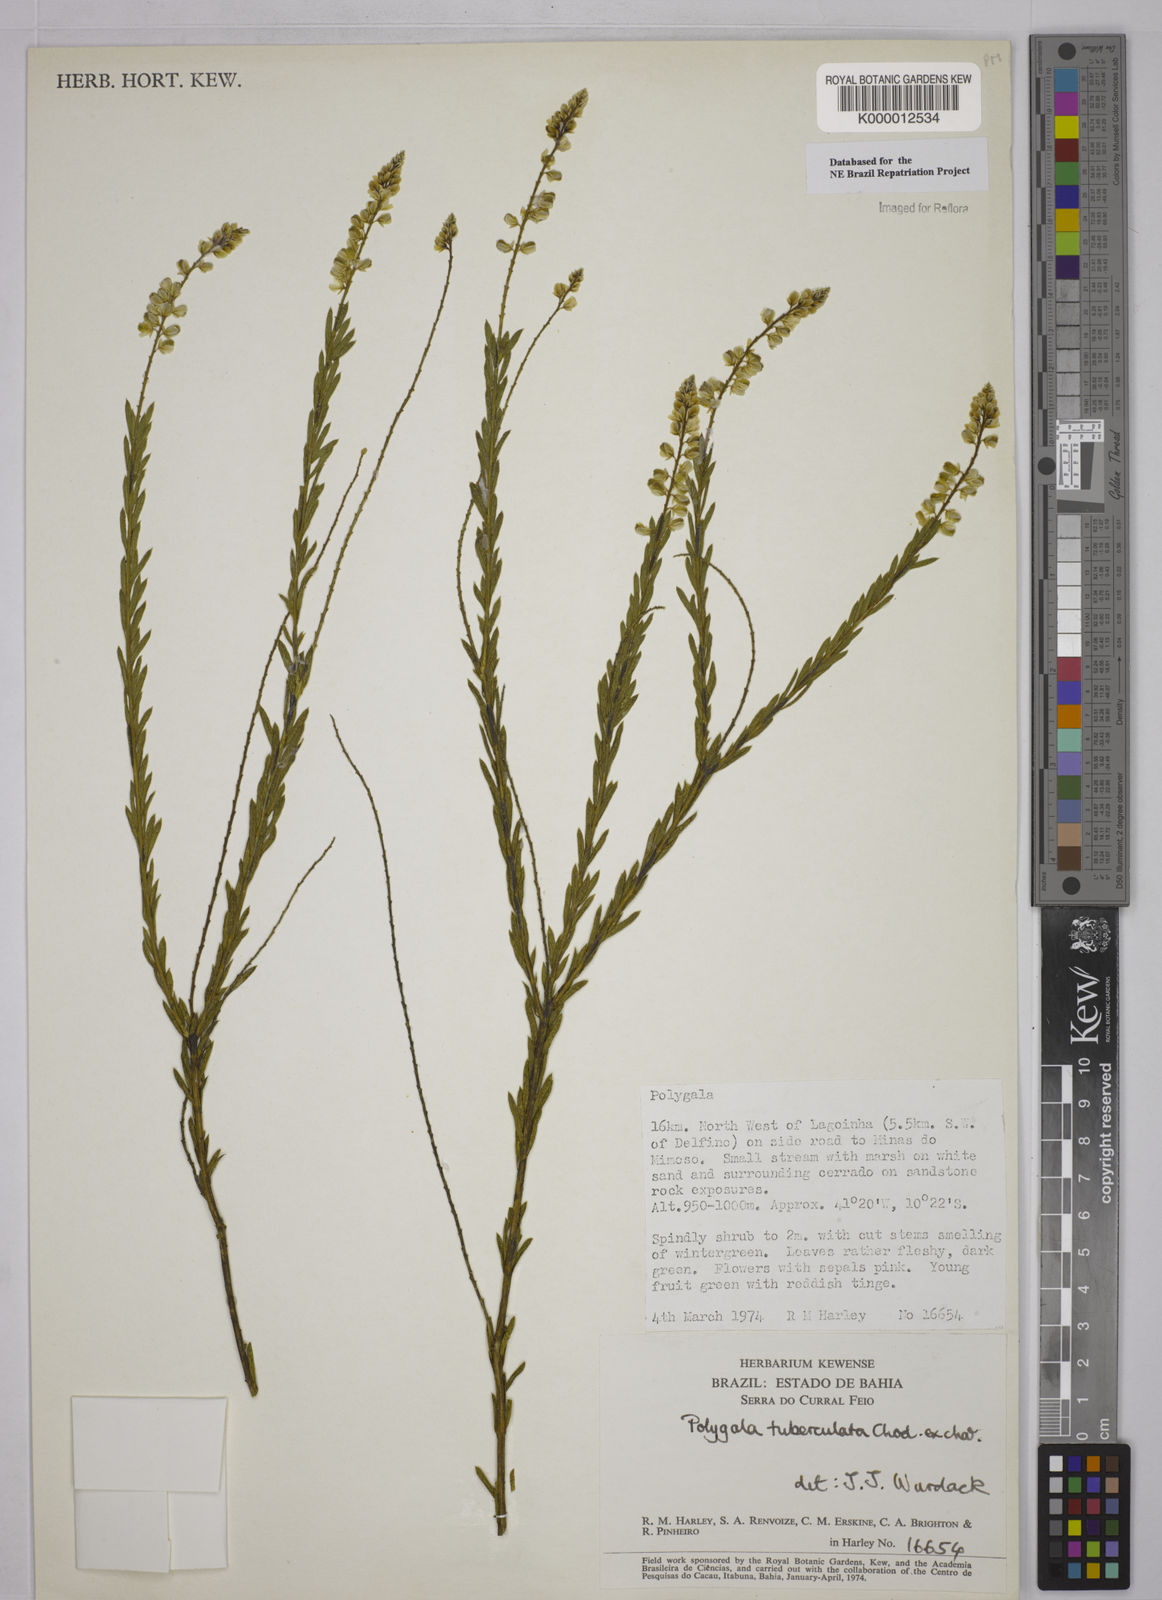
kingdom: Plantae
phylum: Tracheophyta
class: Magnoliopsida
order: Fabales
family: Polygalaceae
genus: Polygala
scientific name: Polygala tuberculata
